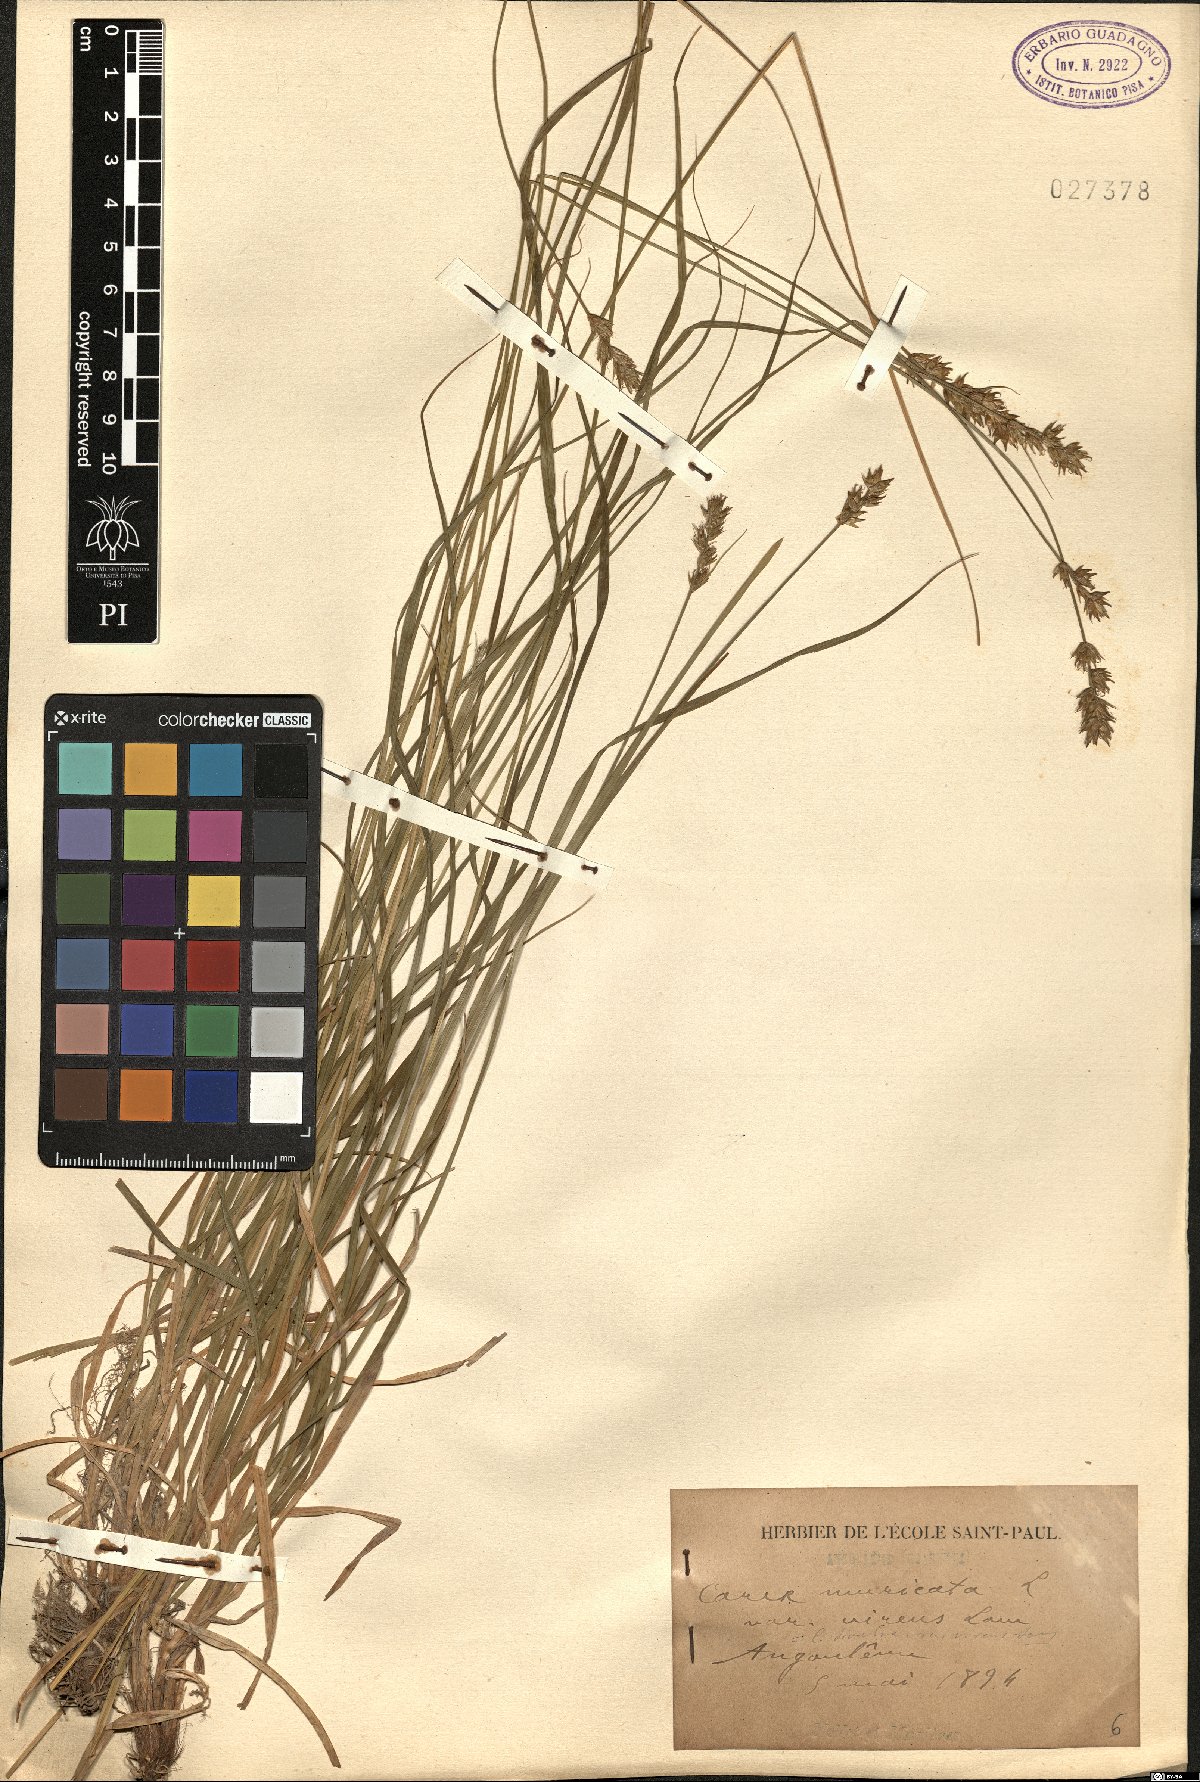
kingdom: Plantae
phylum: Tracheophyta
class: Liliopsida
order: Poales
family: Cyperaceae
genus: Carex
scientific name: Carex divulsa
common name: Grassland sedge
